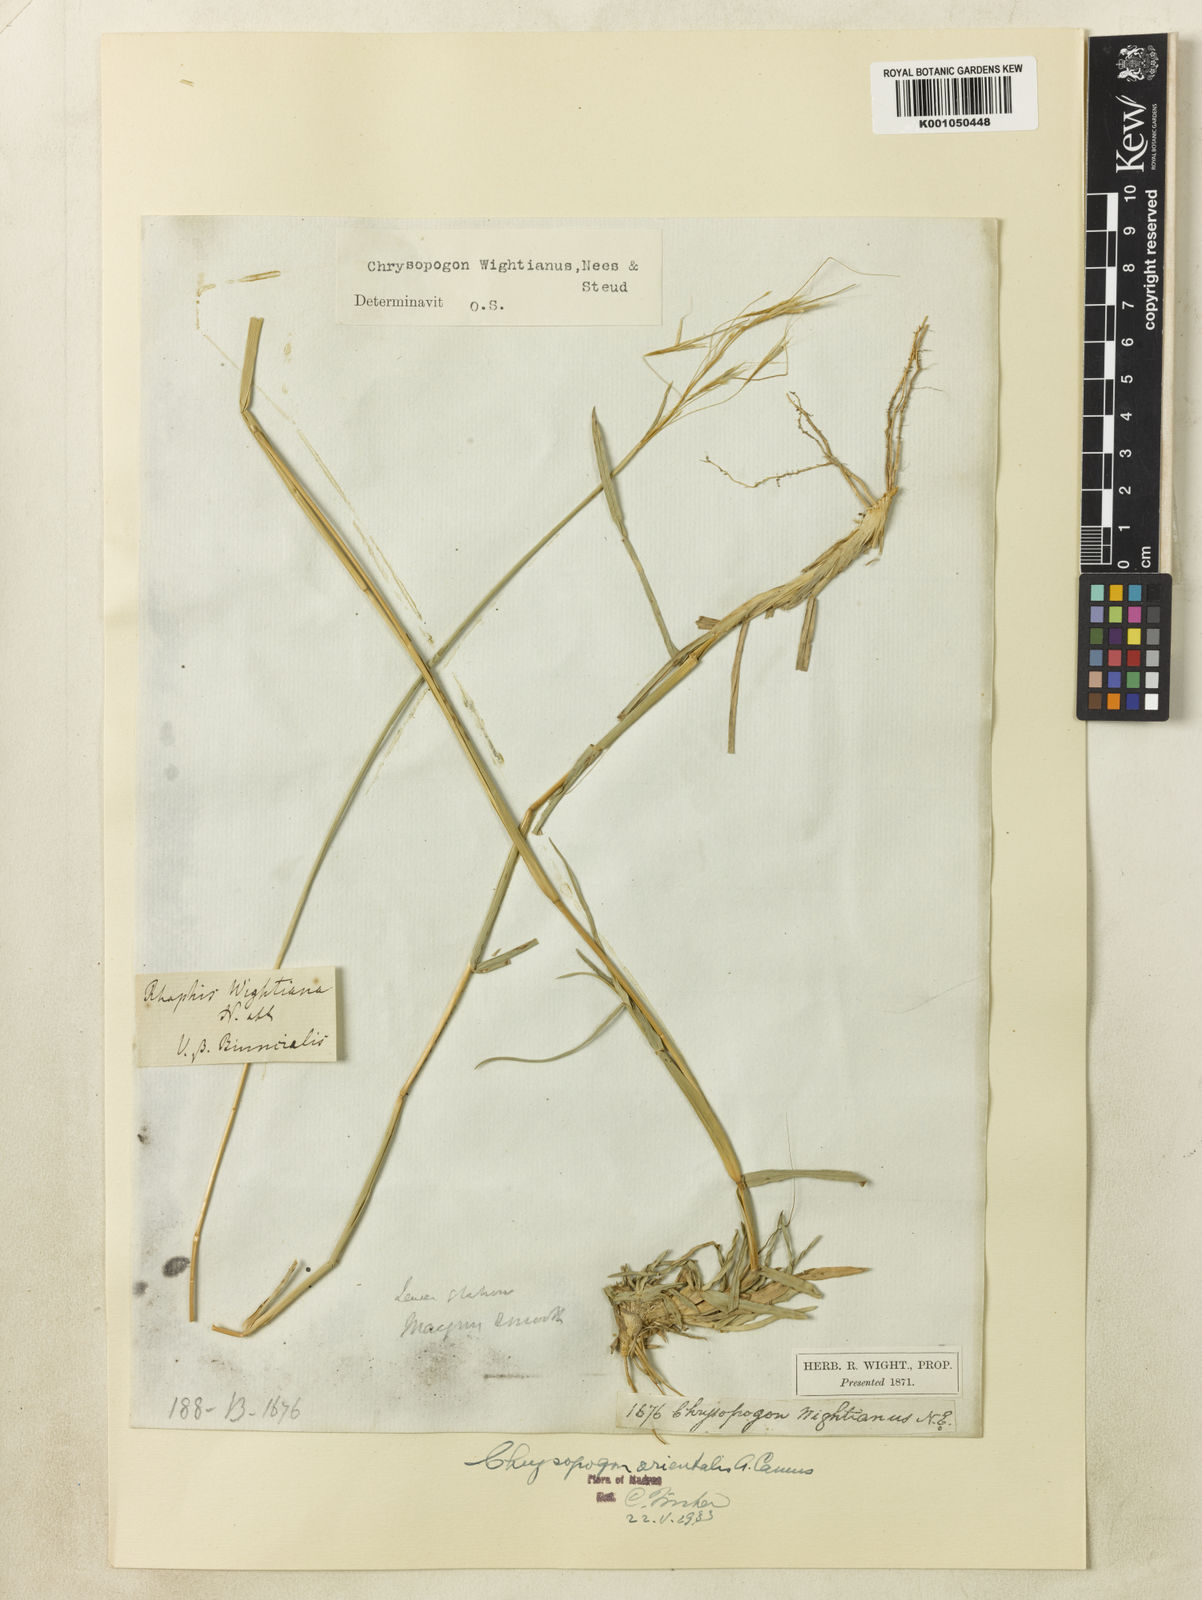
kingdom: Plantae
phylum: Tracheophyta
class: Liliopsida
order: Poales
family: Poaceae
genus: Chrysopogon
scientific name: Chrysopogon orientalis
